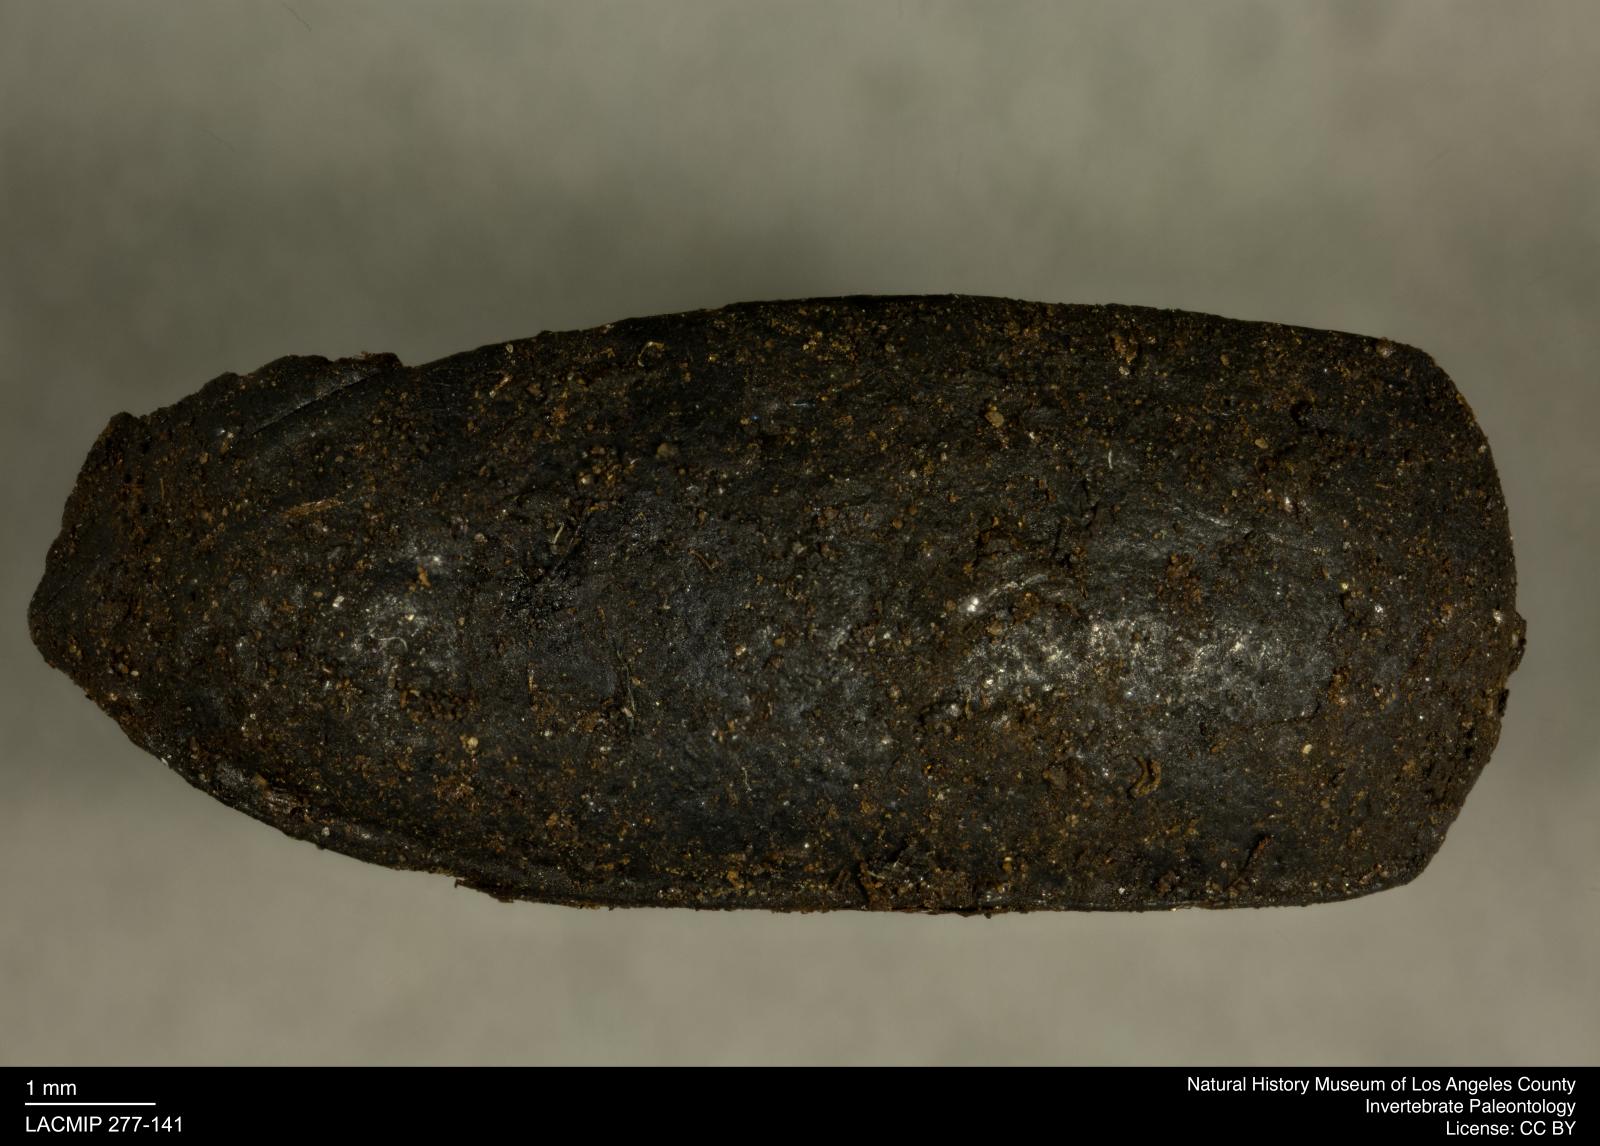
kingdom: Animalia
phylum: Arthropoda
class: Insecta
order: Coleoptera
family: Tenebrionidae
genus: Coniontis
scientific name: Coniontis abdominalis
